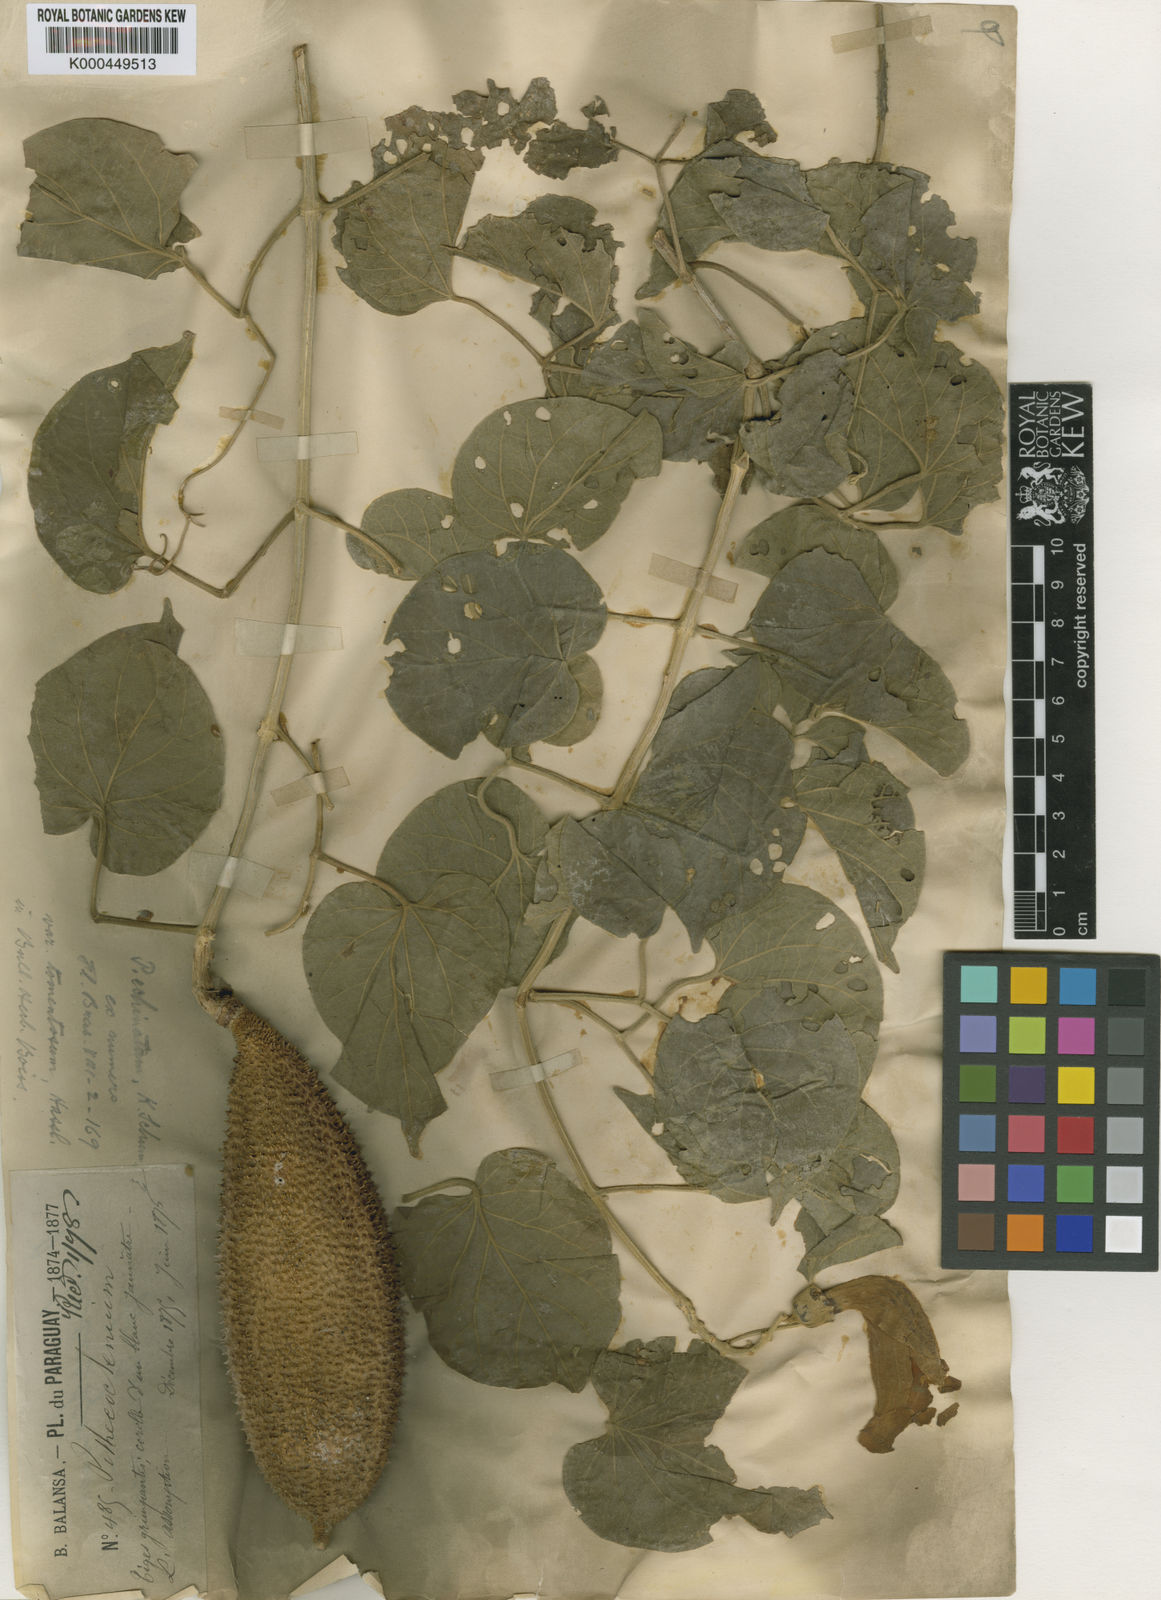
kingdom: Plantae
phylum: Tracheophyta
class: Magnoliopsida
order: Lamiales
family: Bignoniaceae
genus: Amphilophium
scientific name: Amphilophium crucigerum
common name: Monkey comb
